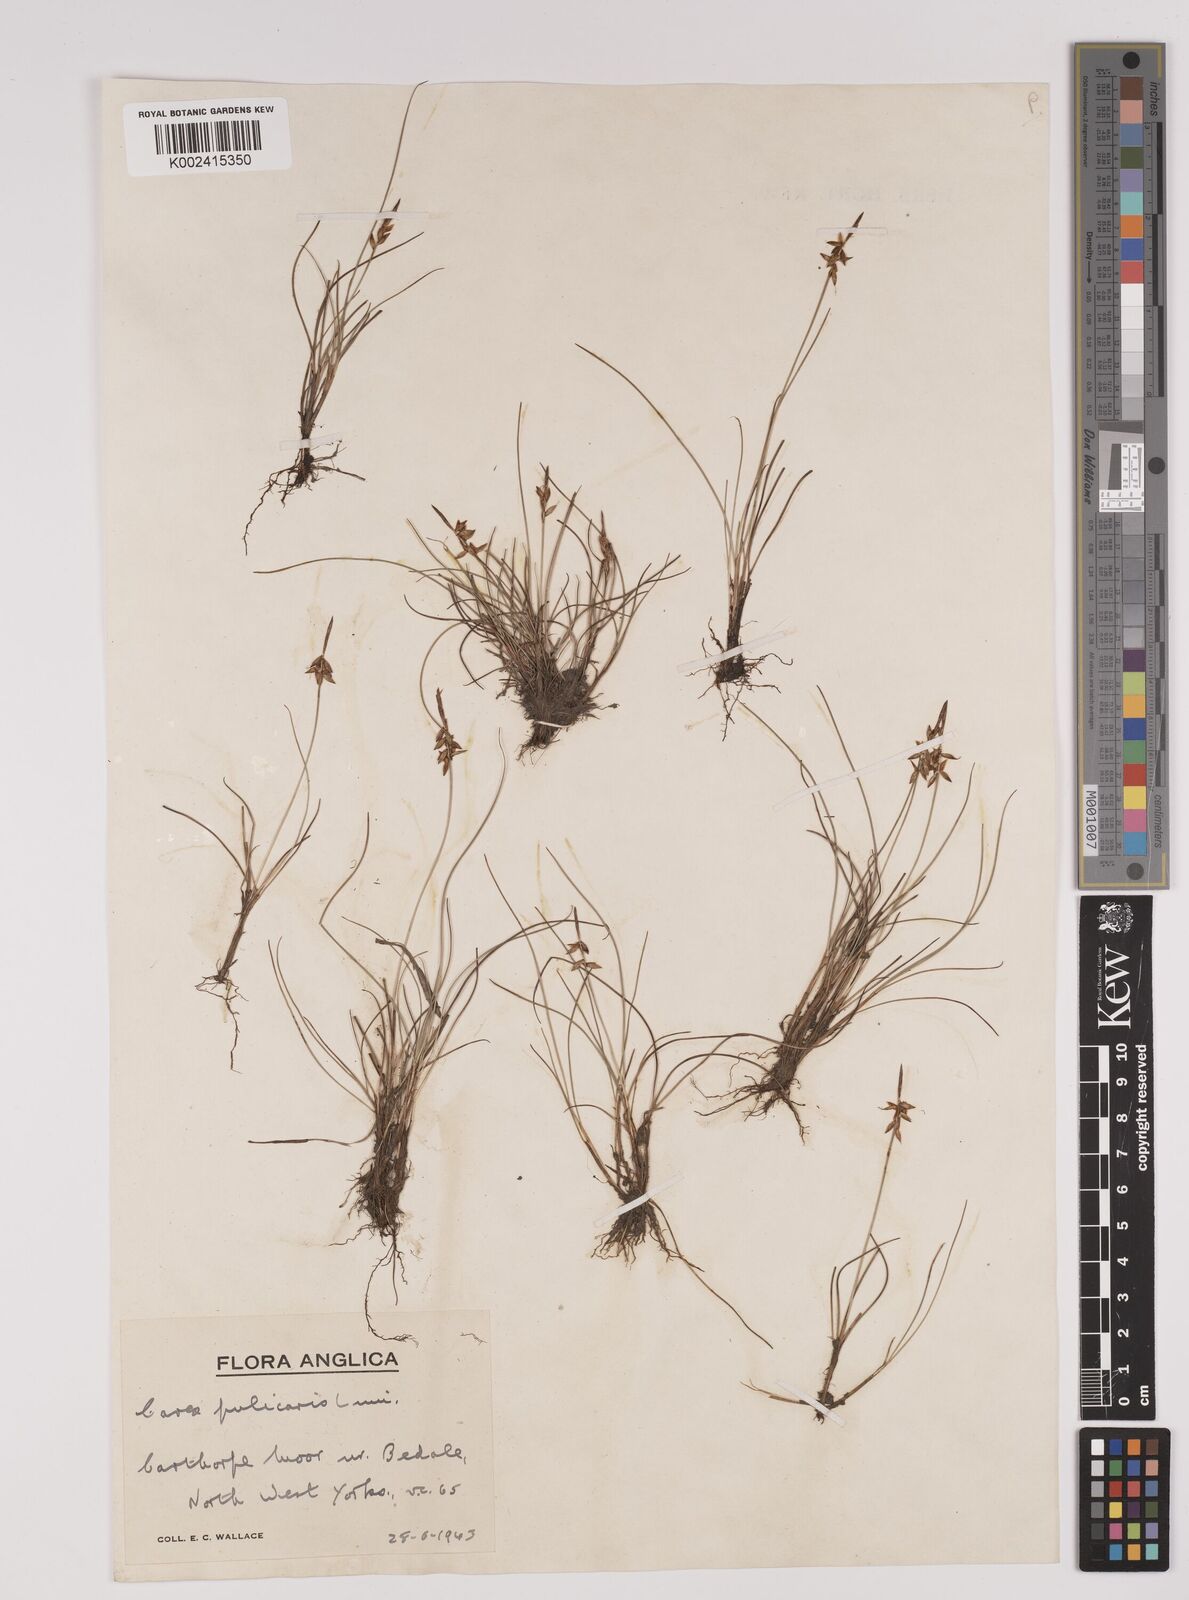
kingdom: Plantae
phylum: Tracheophyta
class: Liliopsida
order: Poales
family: Cyperaceae
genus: Carex
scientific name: Carex pulicaris
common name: Flea sedge
